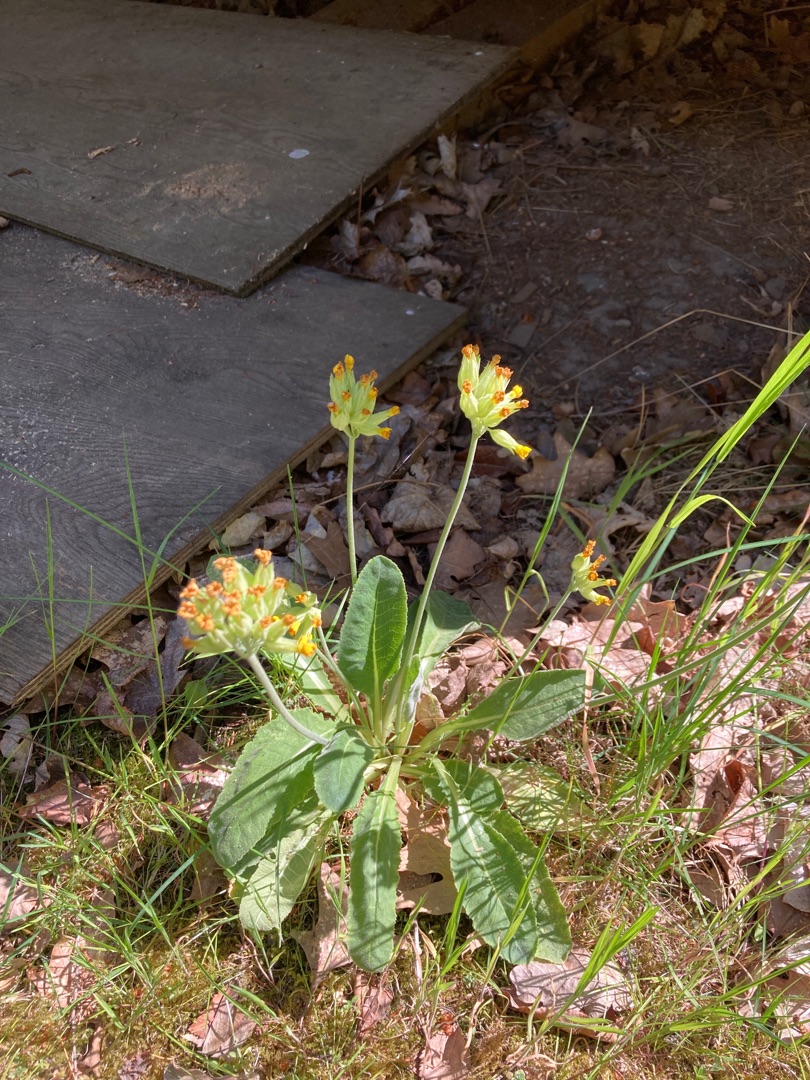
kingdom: Plantae
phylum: Tracheophyta
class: Magnoliopsida
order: Ericales
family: Primulaceae
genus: Primula
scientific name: Primula veris
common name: Hulkravet kodriver
